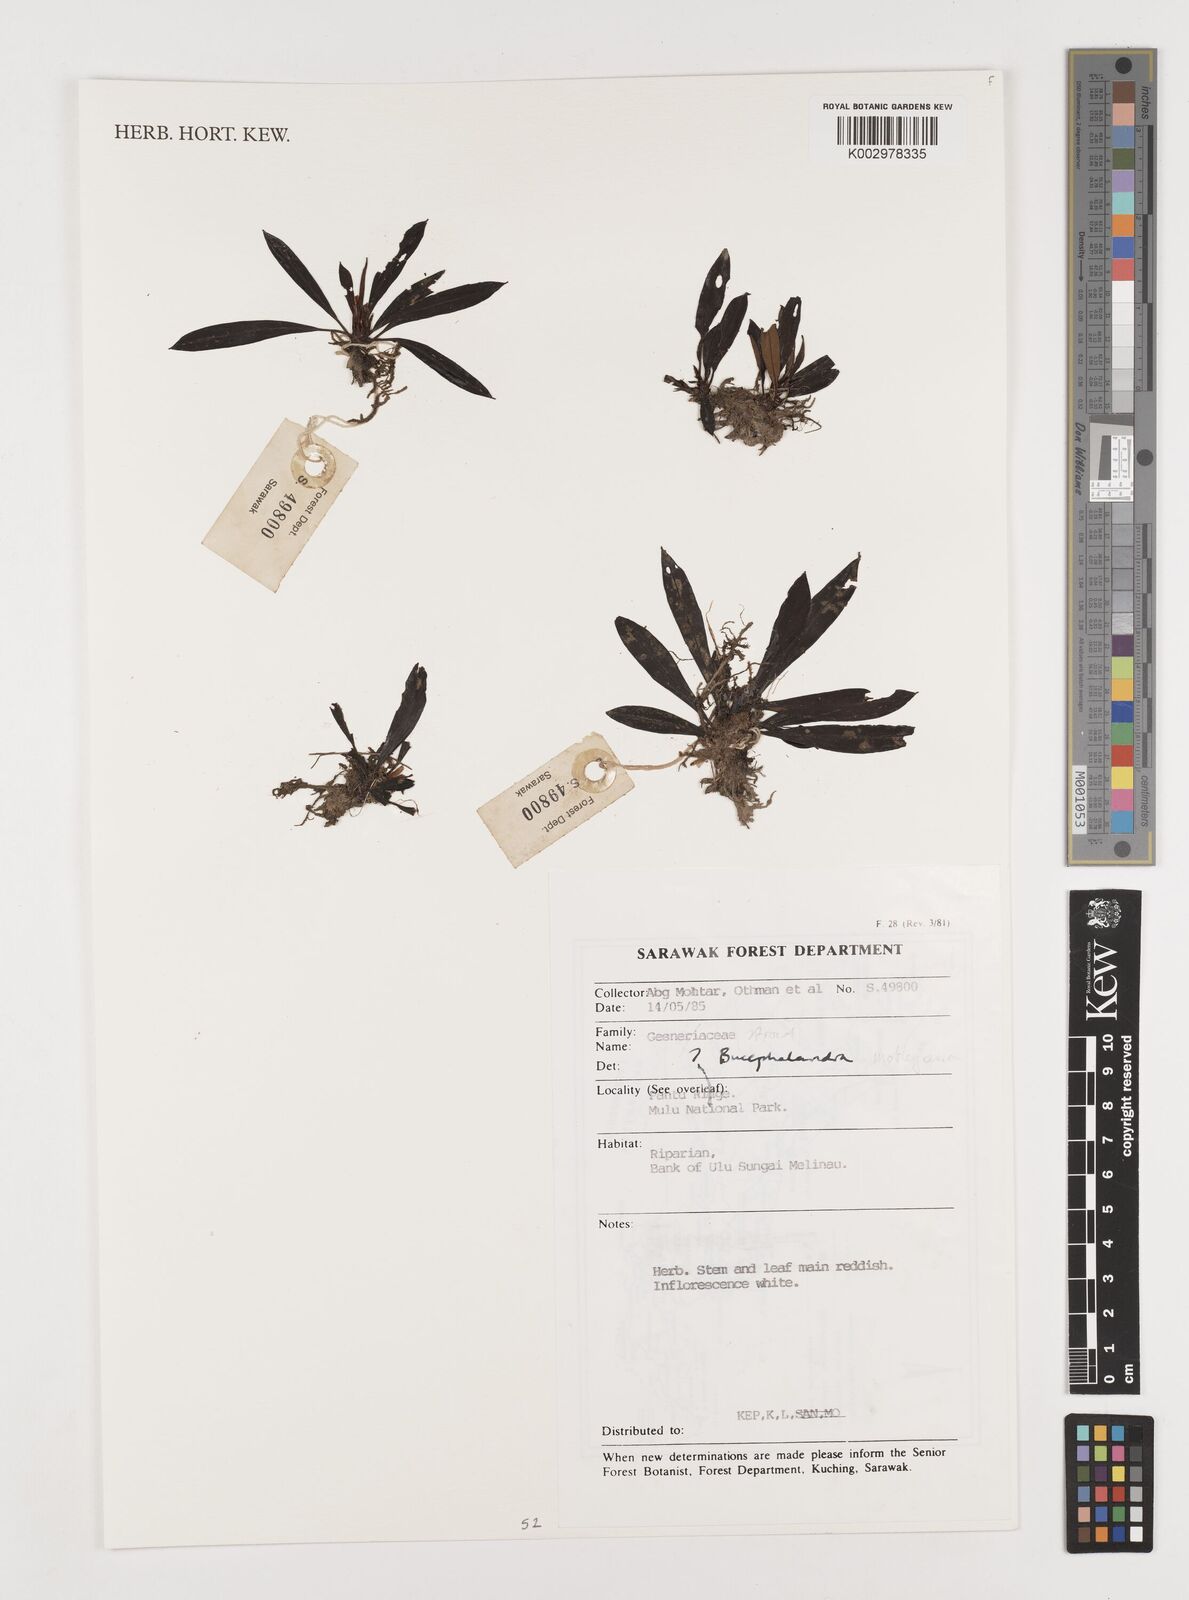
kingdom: Plantae
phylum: Tracheophyta
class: Liliopsida
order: Alismatales
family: Araceae
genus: Bucephalandra
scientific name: Bucephalandra motleyana
